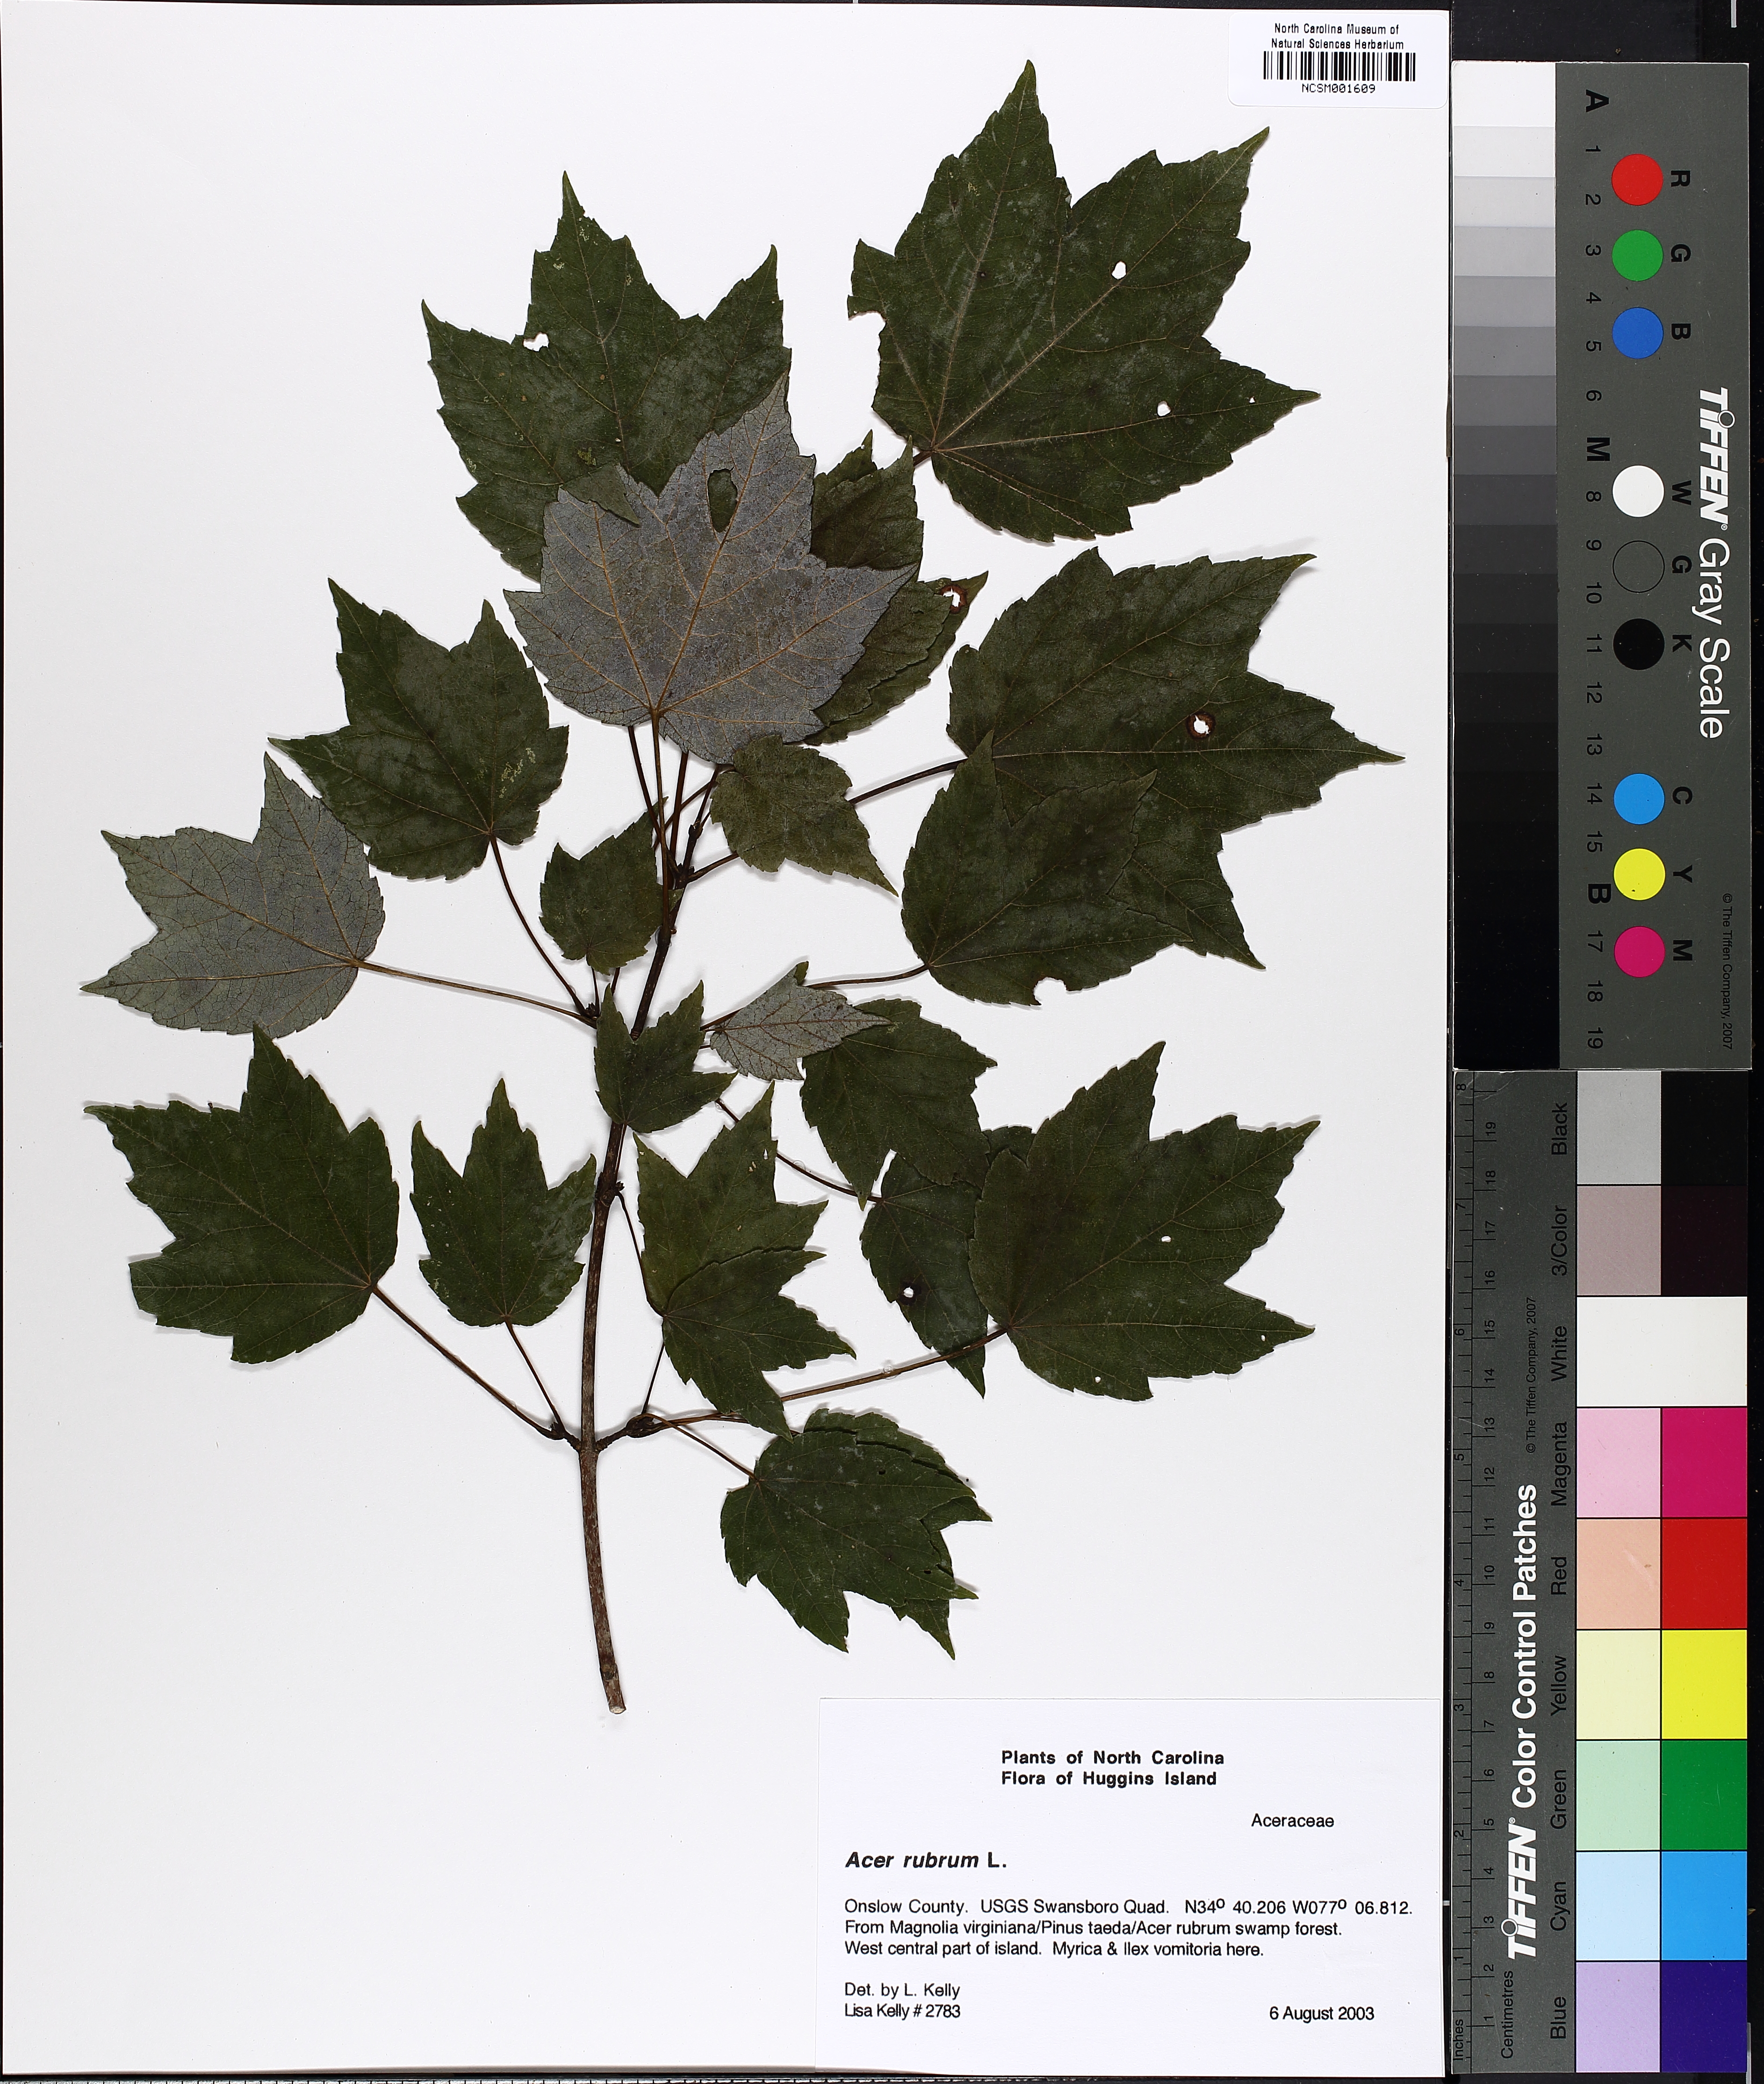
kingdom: Plantae
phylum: Tracheophyta
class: Magnoliopsida
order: Sapindales
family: Sapindaceae
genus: Acer
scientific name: Acer rubrum
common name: Red maple
